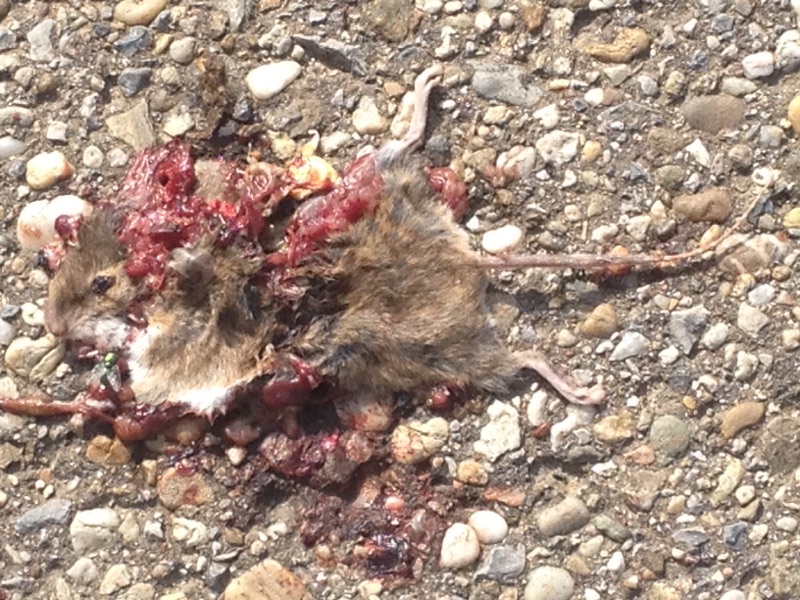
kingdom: Animalia
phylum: Chordata
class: Mammalia
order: Rodentia
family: Muridae
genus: Apodemus
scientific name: Apodemus
